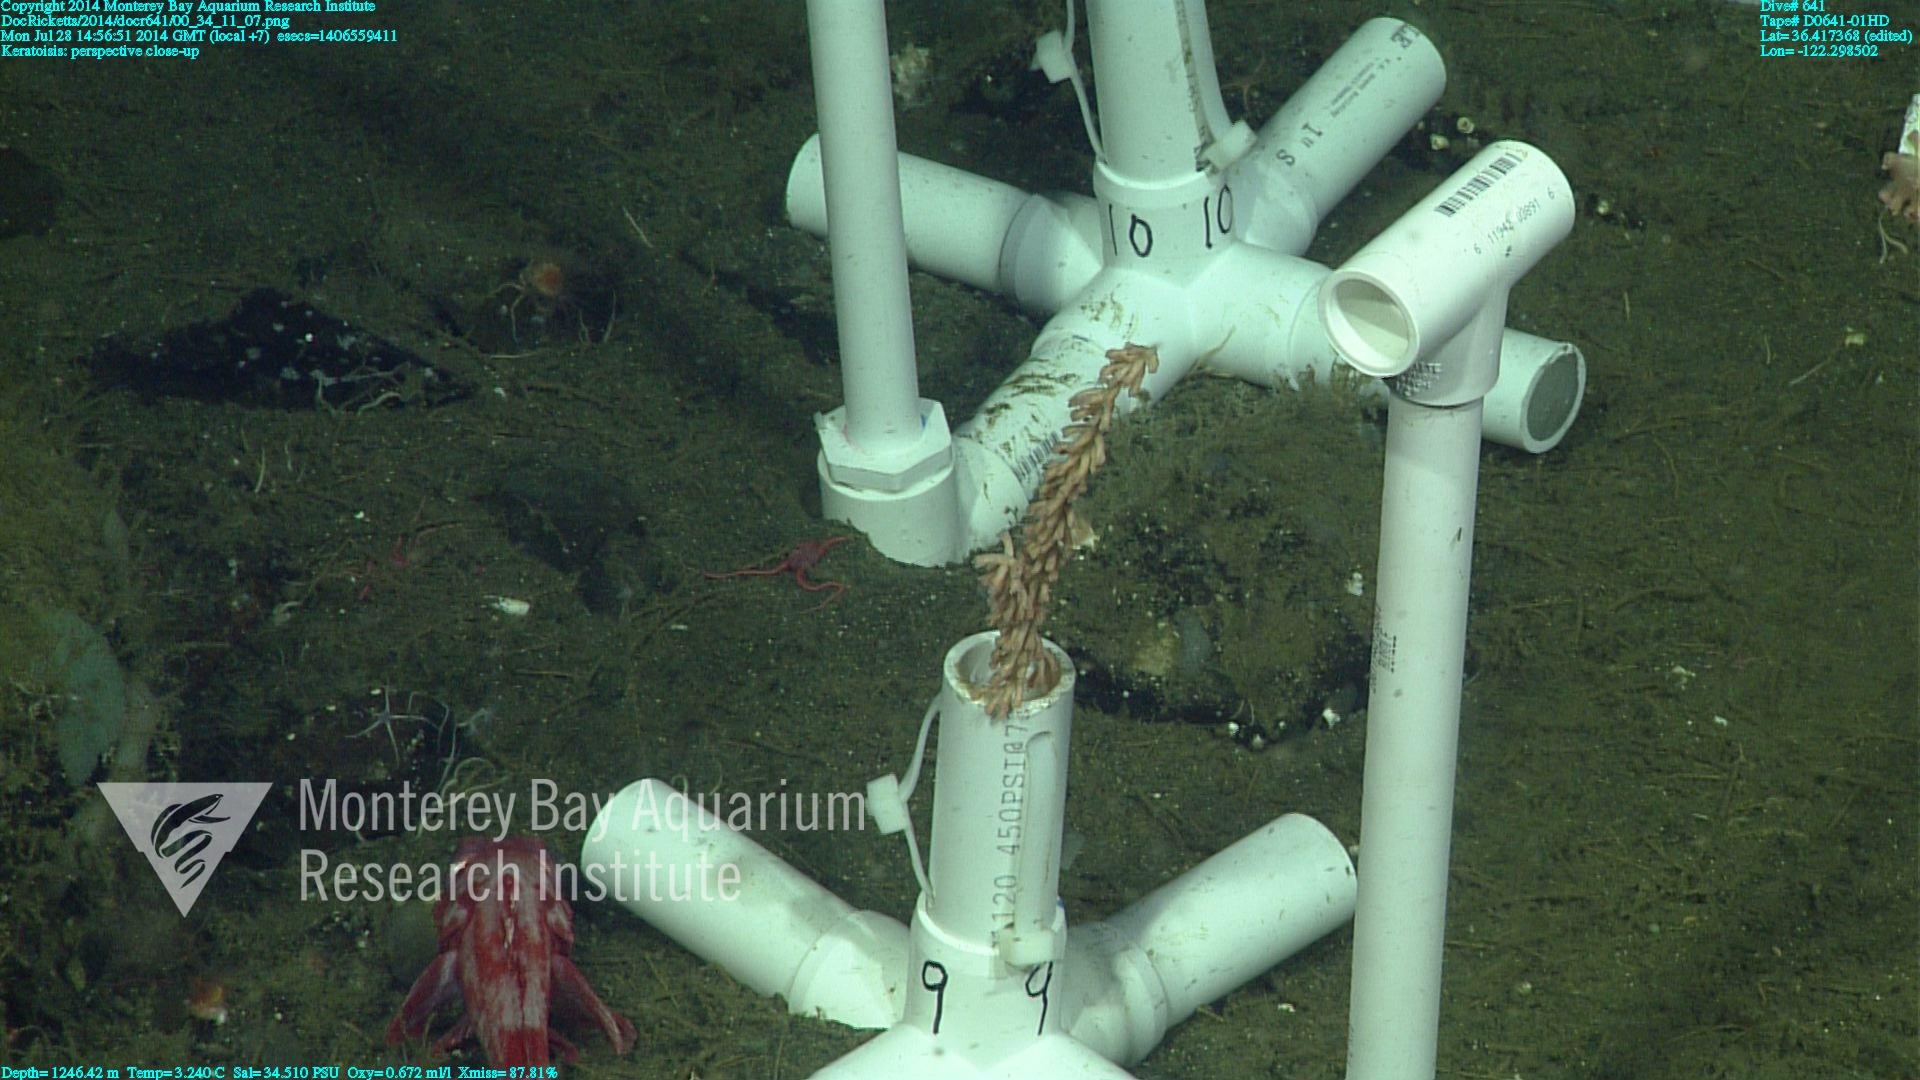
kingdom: Animalia
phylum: Cnidaria
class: Anthozoa
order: Scleralcyonacea
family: Keratoisididae
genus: Keratoisis
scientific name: Keratoisis
